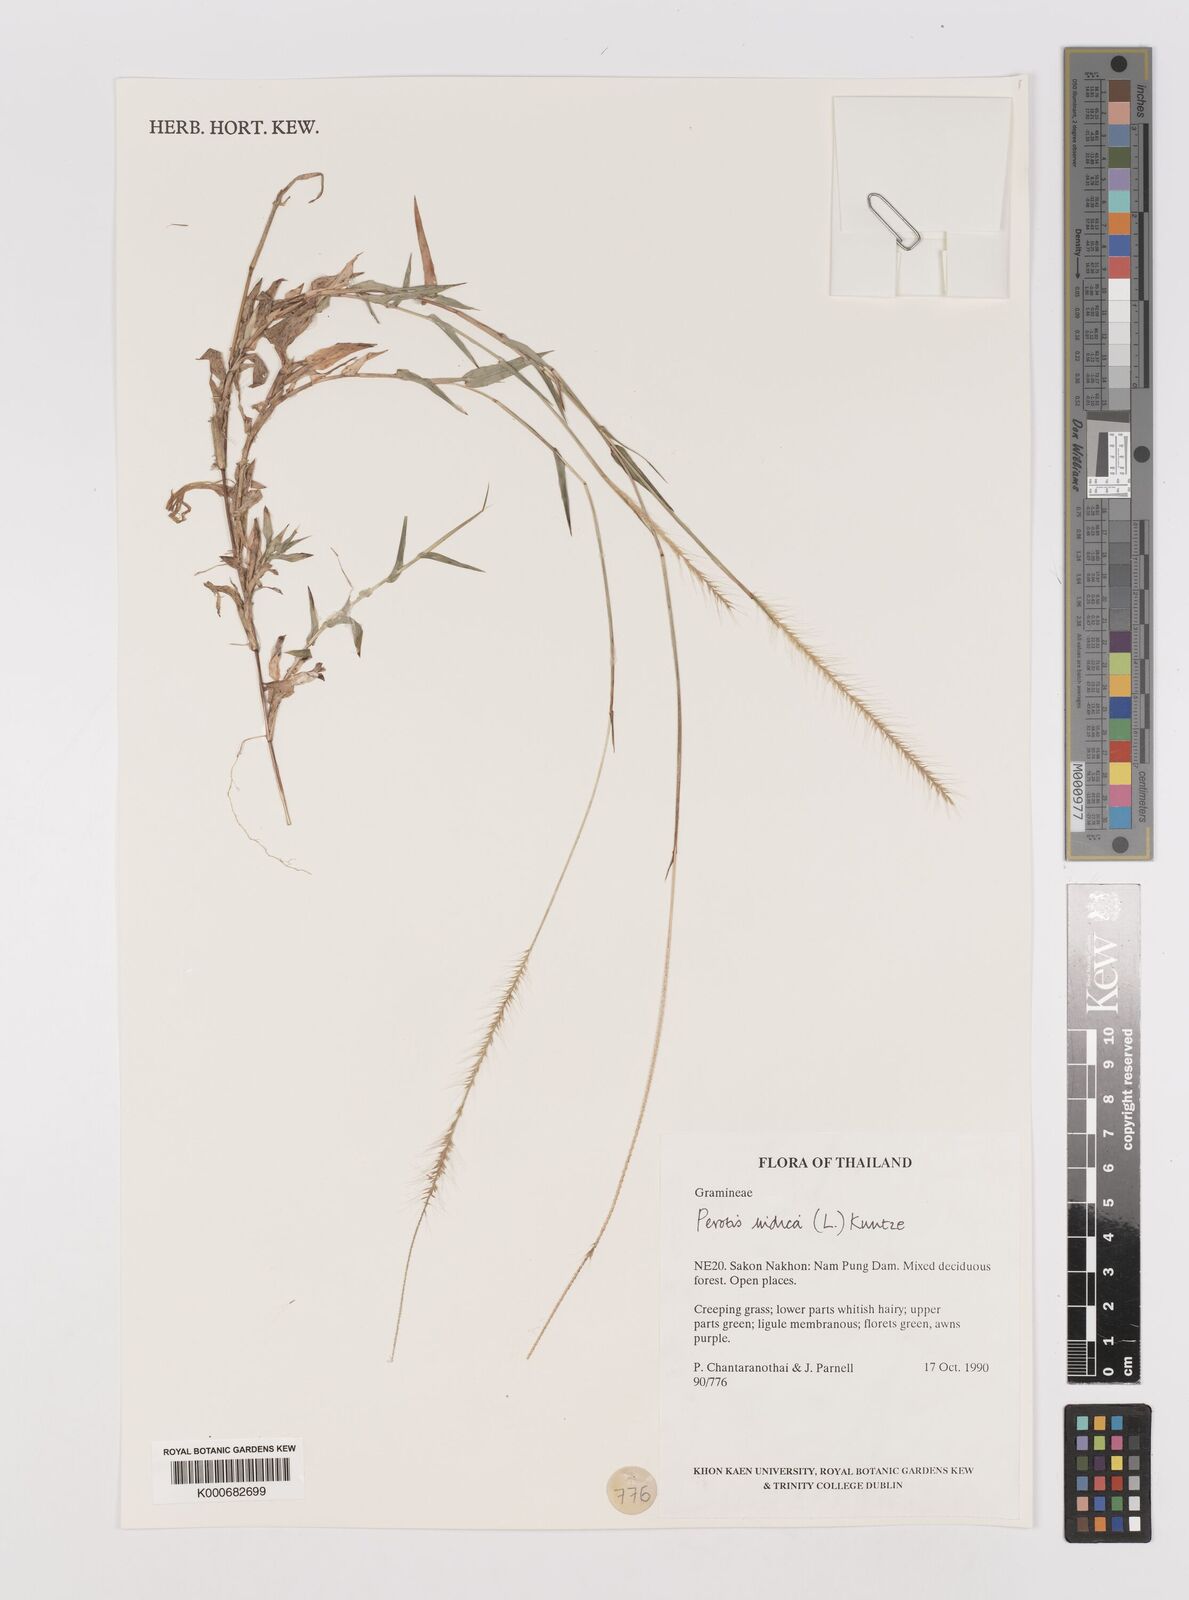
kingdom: Plantae
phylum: Tracheophyta
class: Liliopsida
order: Poales
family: Poaceae
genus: Perotis
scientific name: Perotis indica
